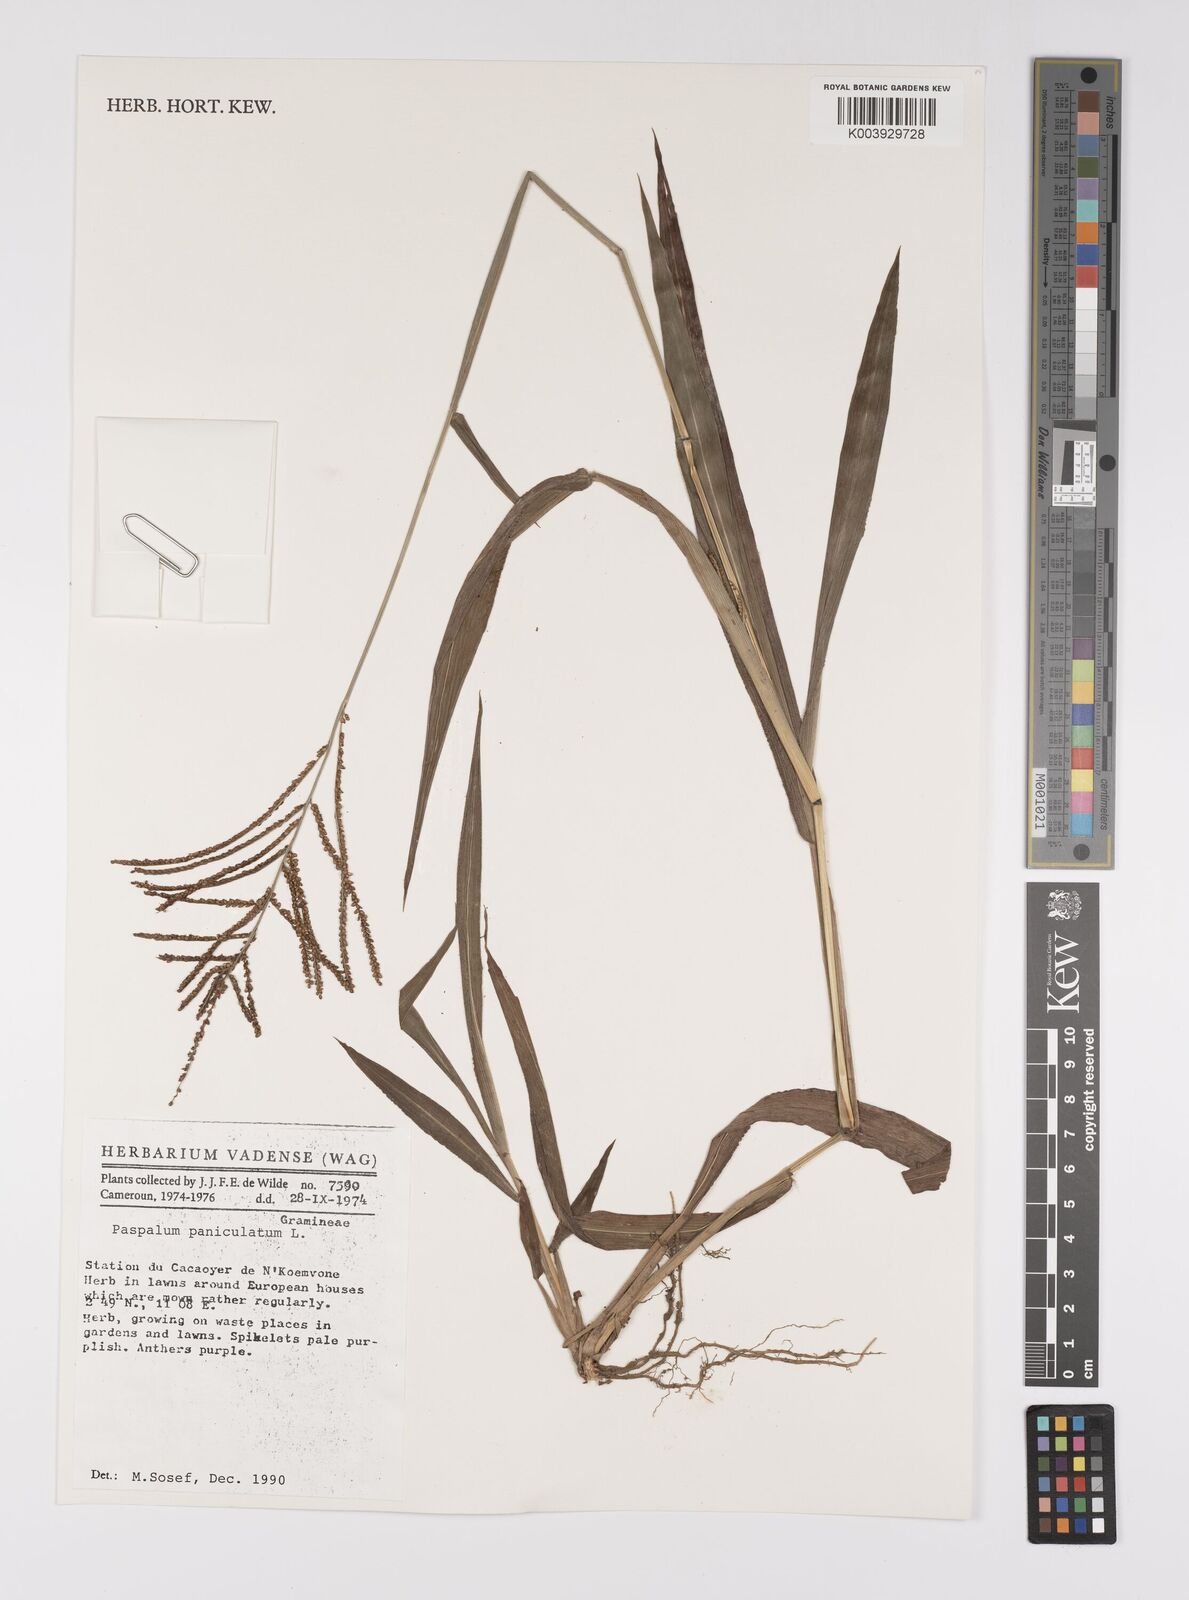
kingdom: Plantae
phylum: Tracheophyta
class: Liliopsida
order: Poales
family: Poaceae
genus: Paspalum
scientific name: Paspalum paniculatum
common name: Arrocillo
